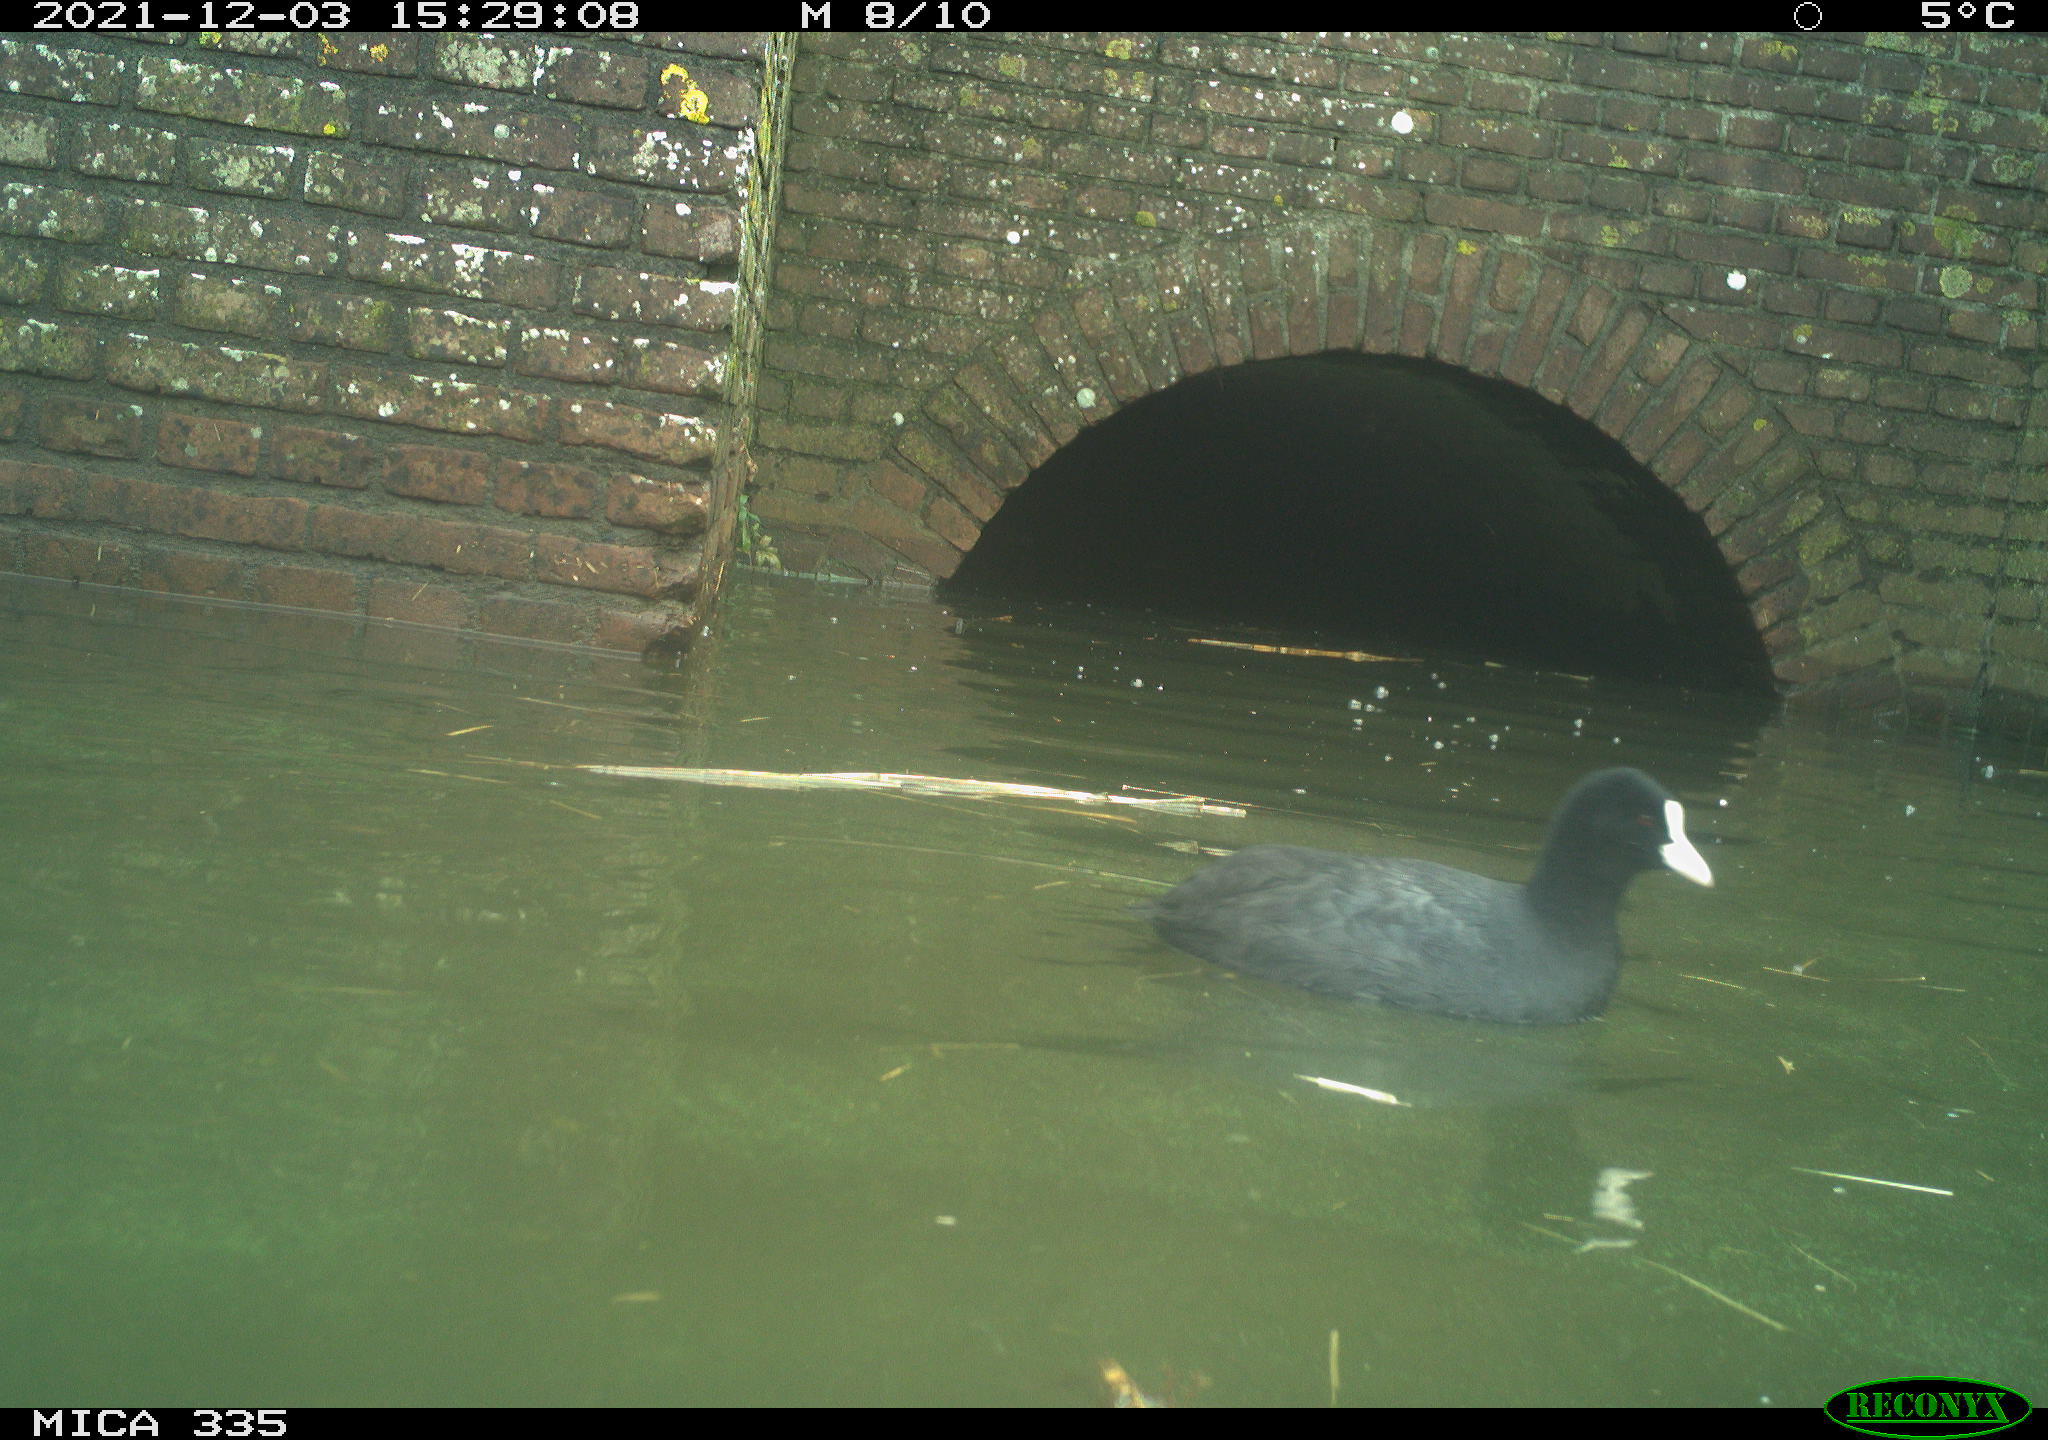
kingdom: Animalia
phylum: Chordata
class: Aves
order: Gruiformes
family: Rallidae
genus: Fulica
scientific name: Fulica atra
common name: Eurasian coot
